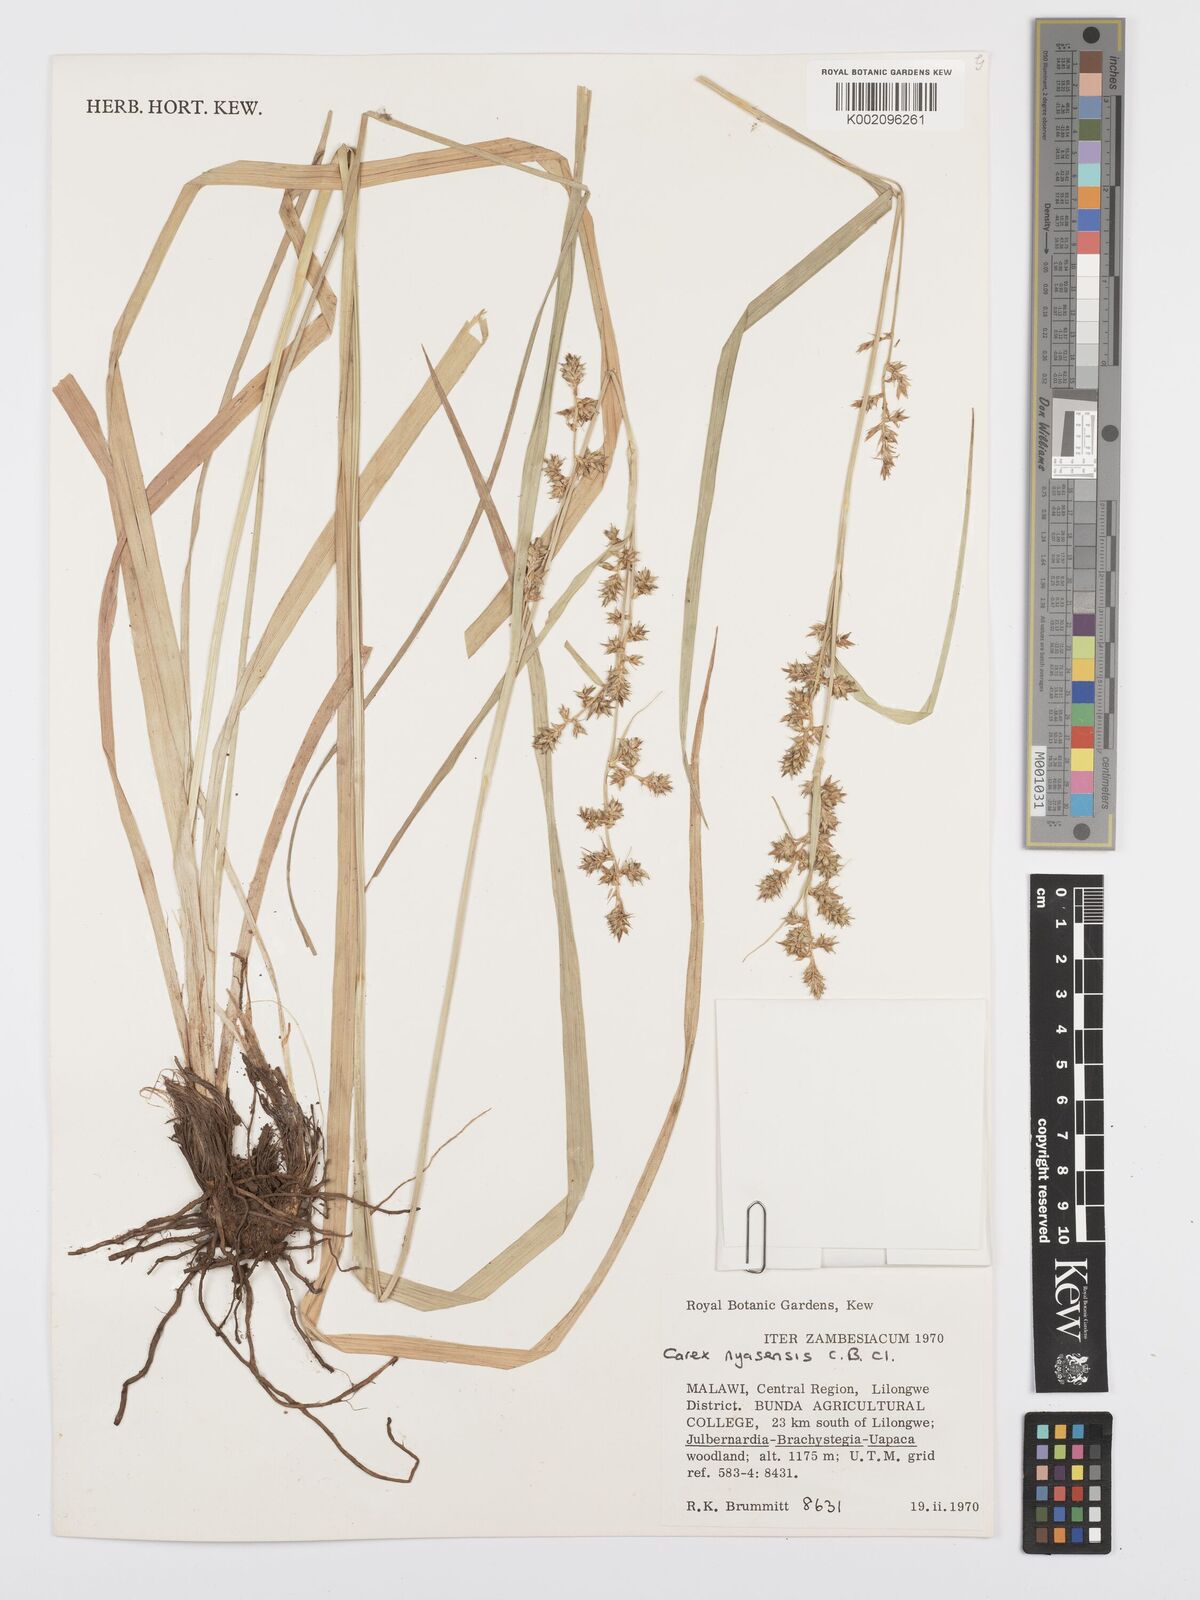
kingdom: Plantae
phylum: Tracheophyta
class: Liliopsida
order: Poales
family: Cyperaceae
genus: Carex
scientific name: Carex spicatopaniculata
